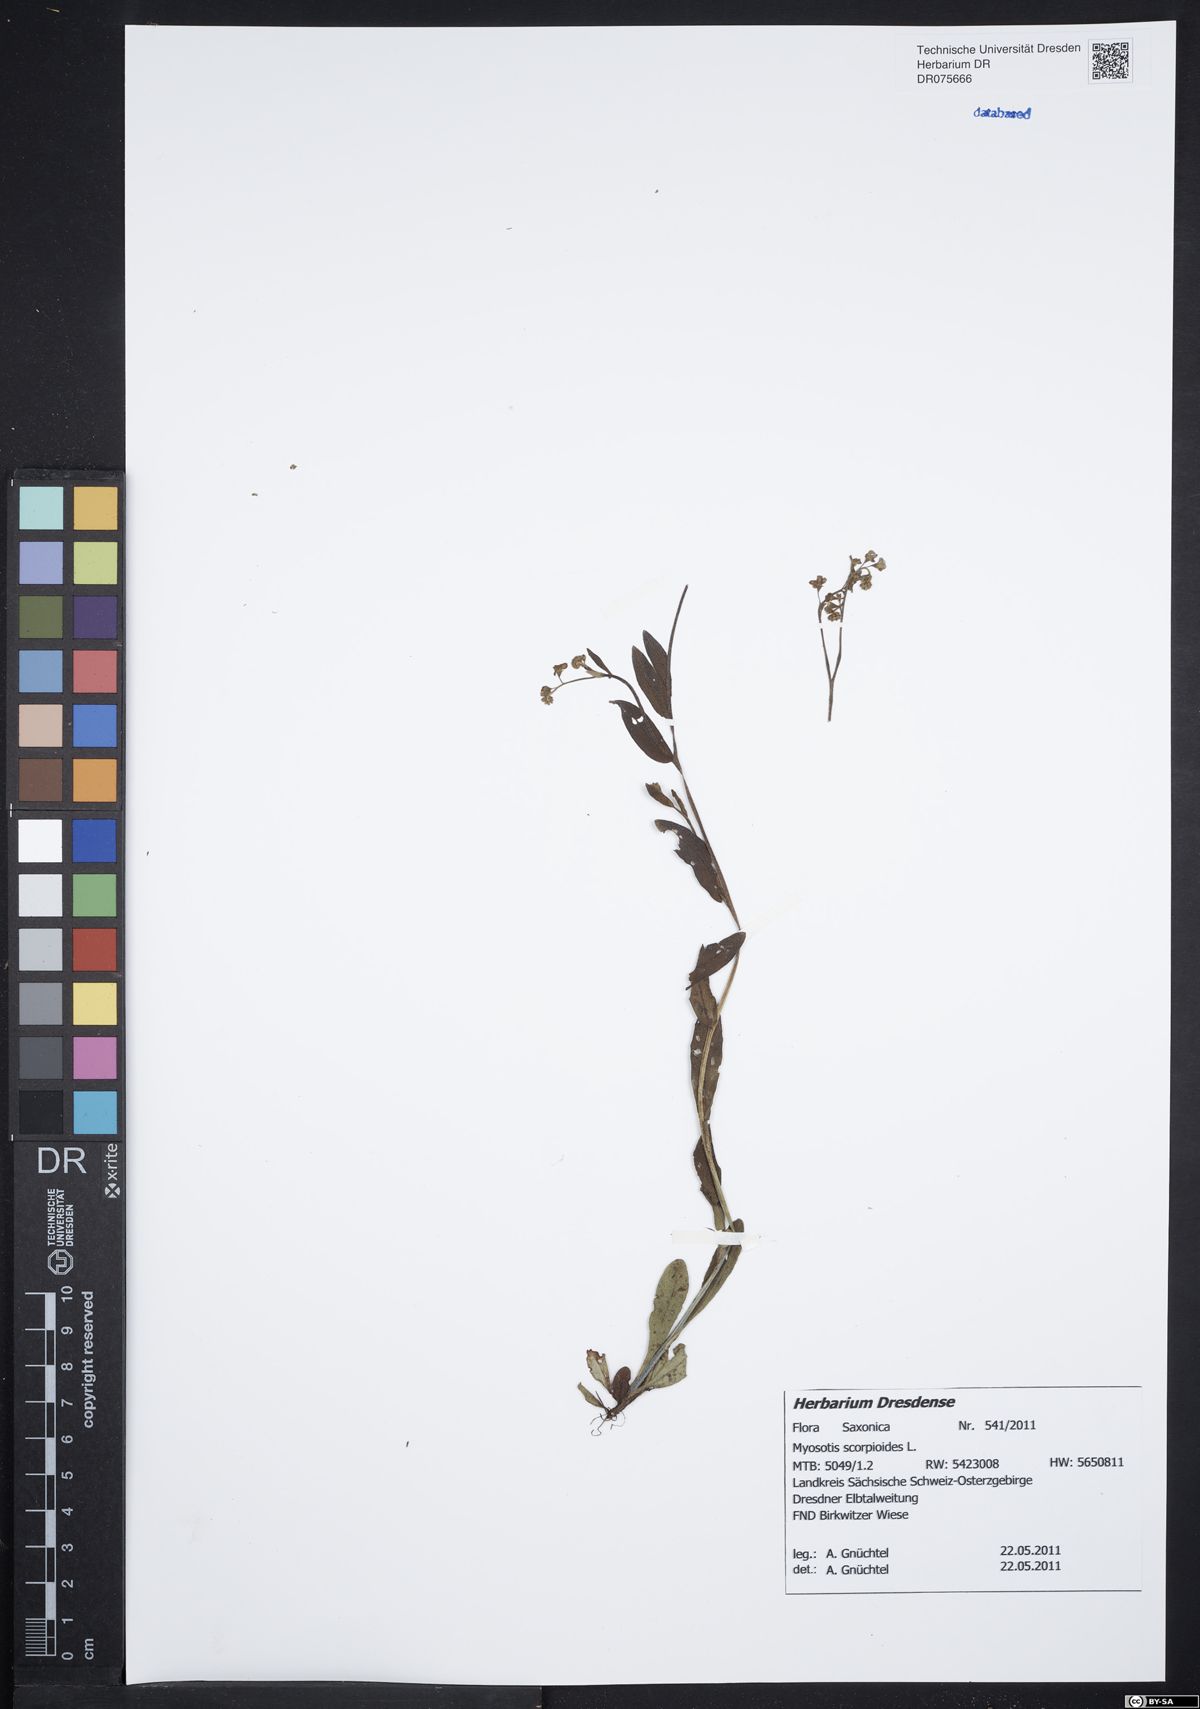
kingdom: Plantae
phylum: Tracheophyta
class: Magnoliopsida
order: Boraginales
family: Boraginaceae
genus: Myosotis
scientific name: Myosotis scorpioides
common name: Water forget-me-not
